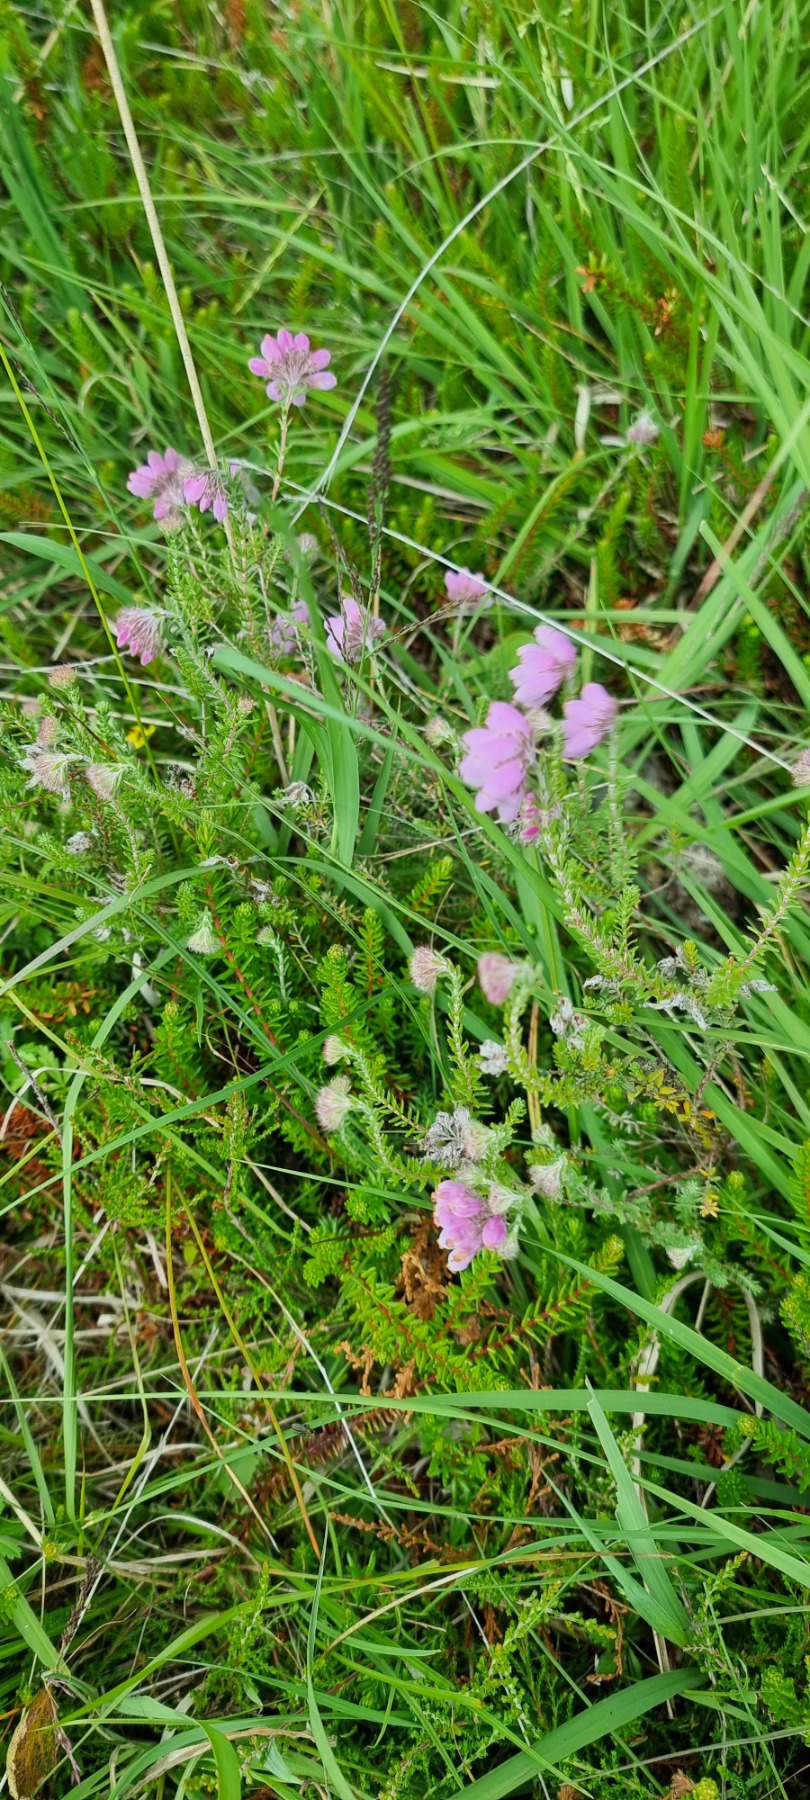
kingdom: Plantae
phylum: Tracheophyta
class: Magnoliopsida
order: Ericales
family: Ericaceae
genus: Erica
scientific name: Erica tetralix
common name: Klokkelyng
